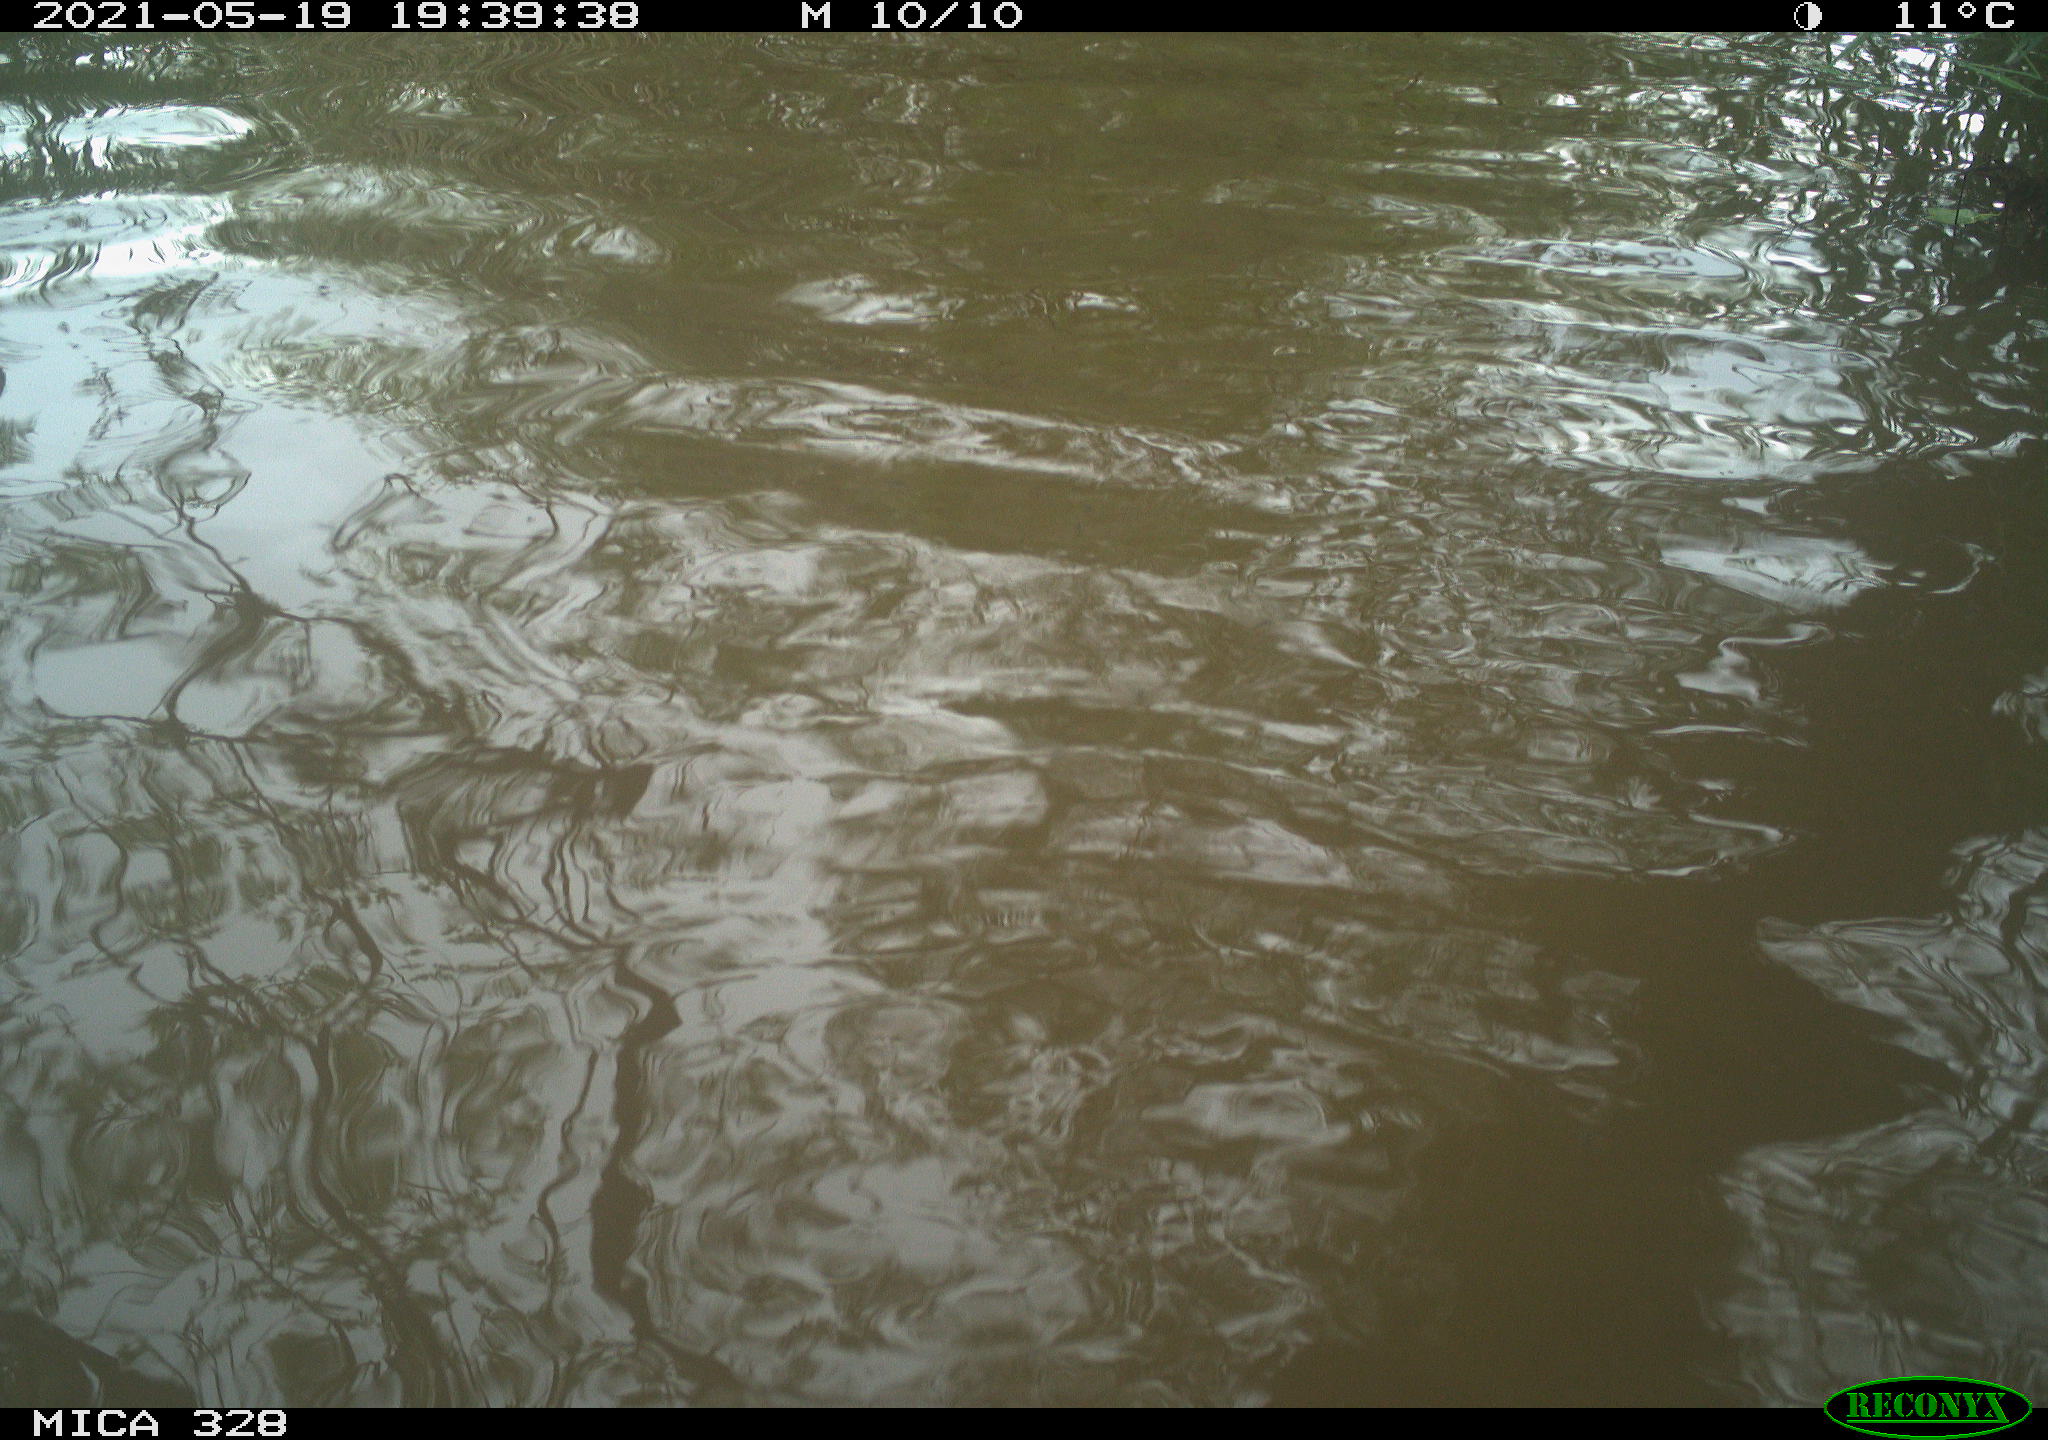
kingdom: Animalia
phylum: Chordata
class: Mammalia
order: Rodentia
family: Cricetidae
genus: Ondatra
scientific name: Ondatra zibethicus
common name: Muskrat
